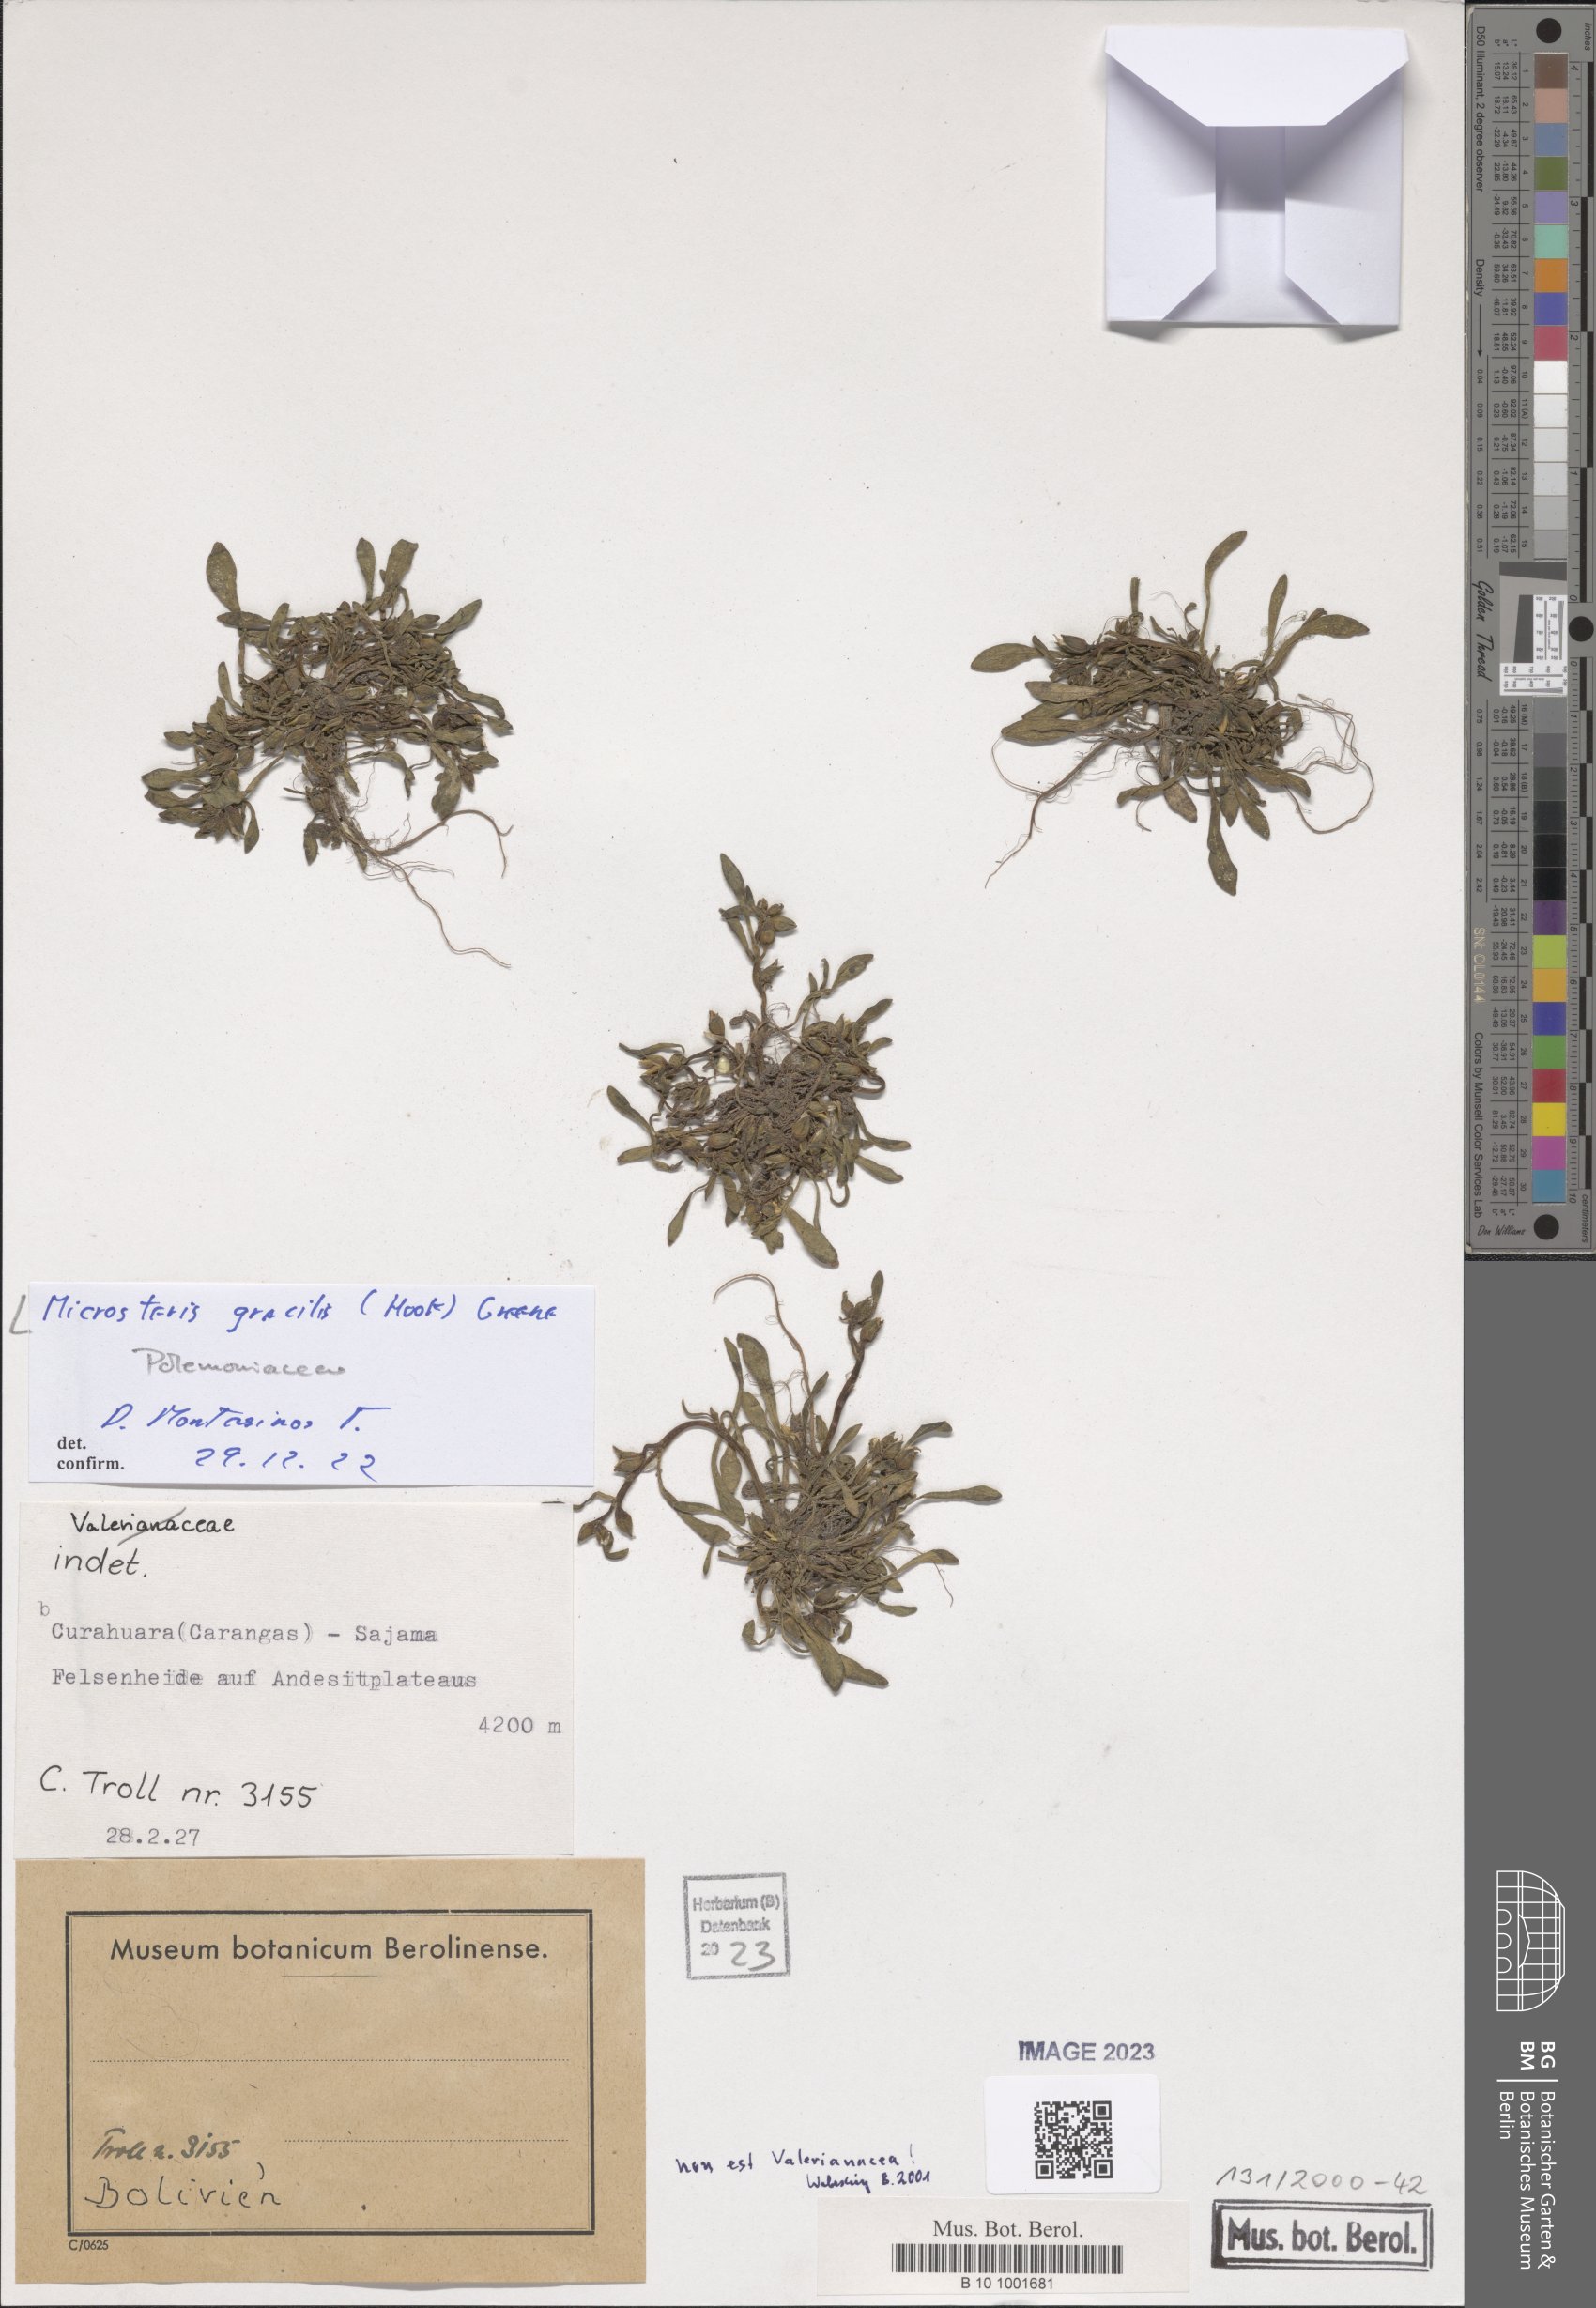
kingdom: Plantae
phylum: Tracheophyta
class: Magnoliopsida
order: Ericales
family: Polemoniaceae
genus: Phlox
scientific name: Phlox gracilis
